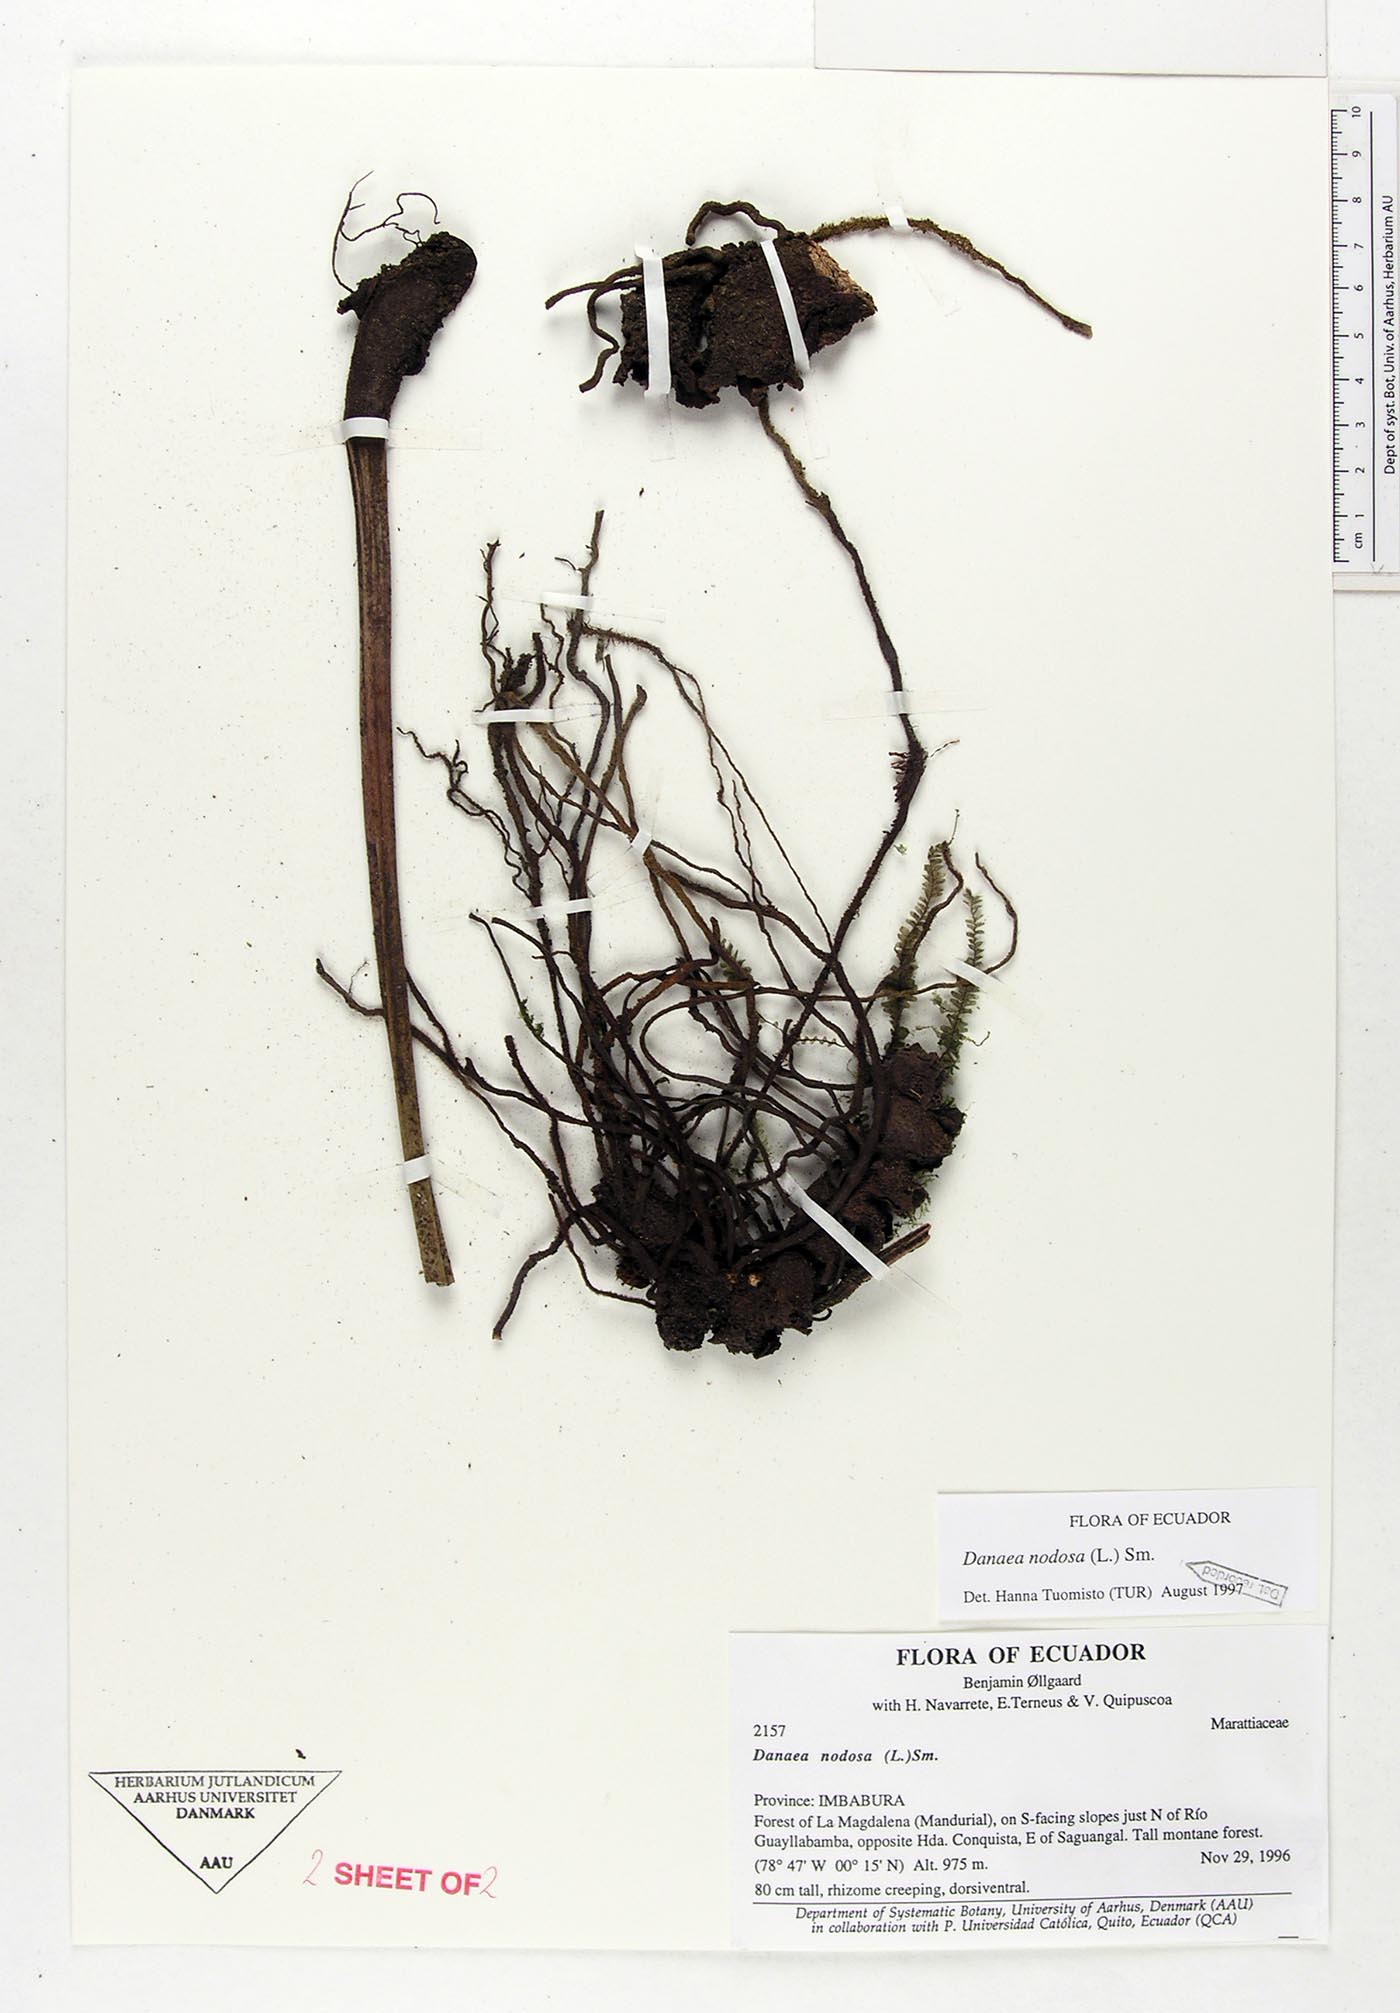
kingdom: Plantae
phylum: Tracheophyta
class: Polypodiopsida
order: Marattiales
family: Marattiaceae
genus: Danaea
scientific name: Danaea nodosa
